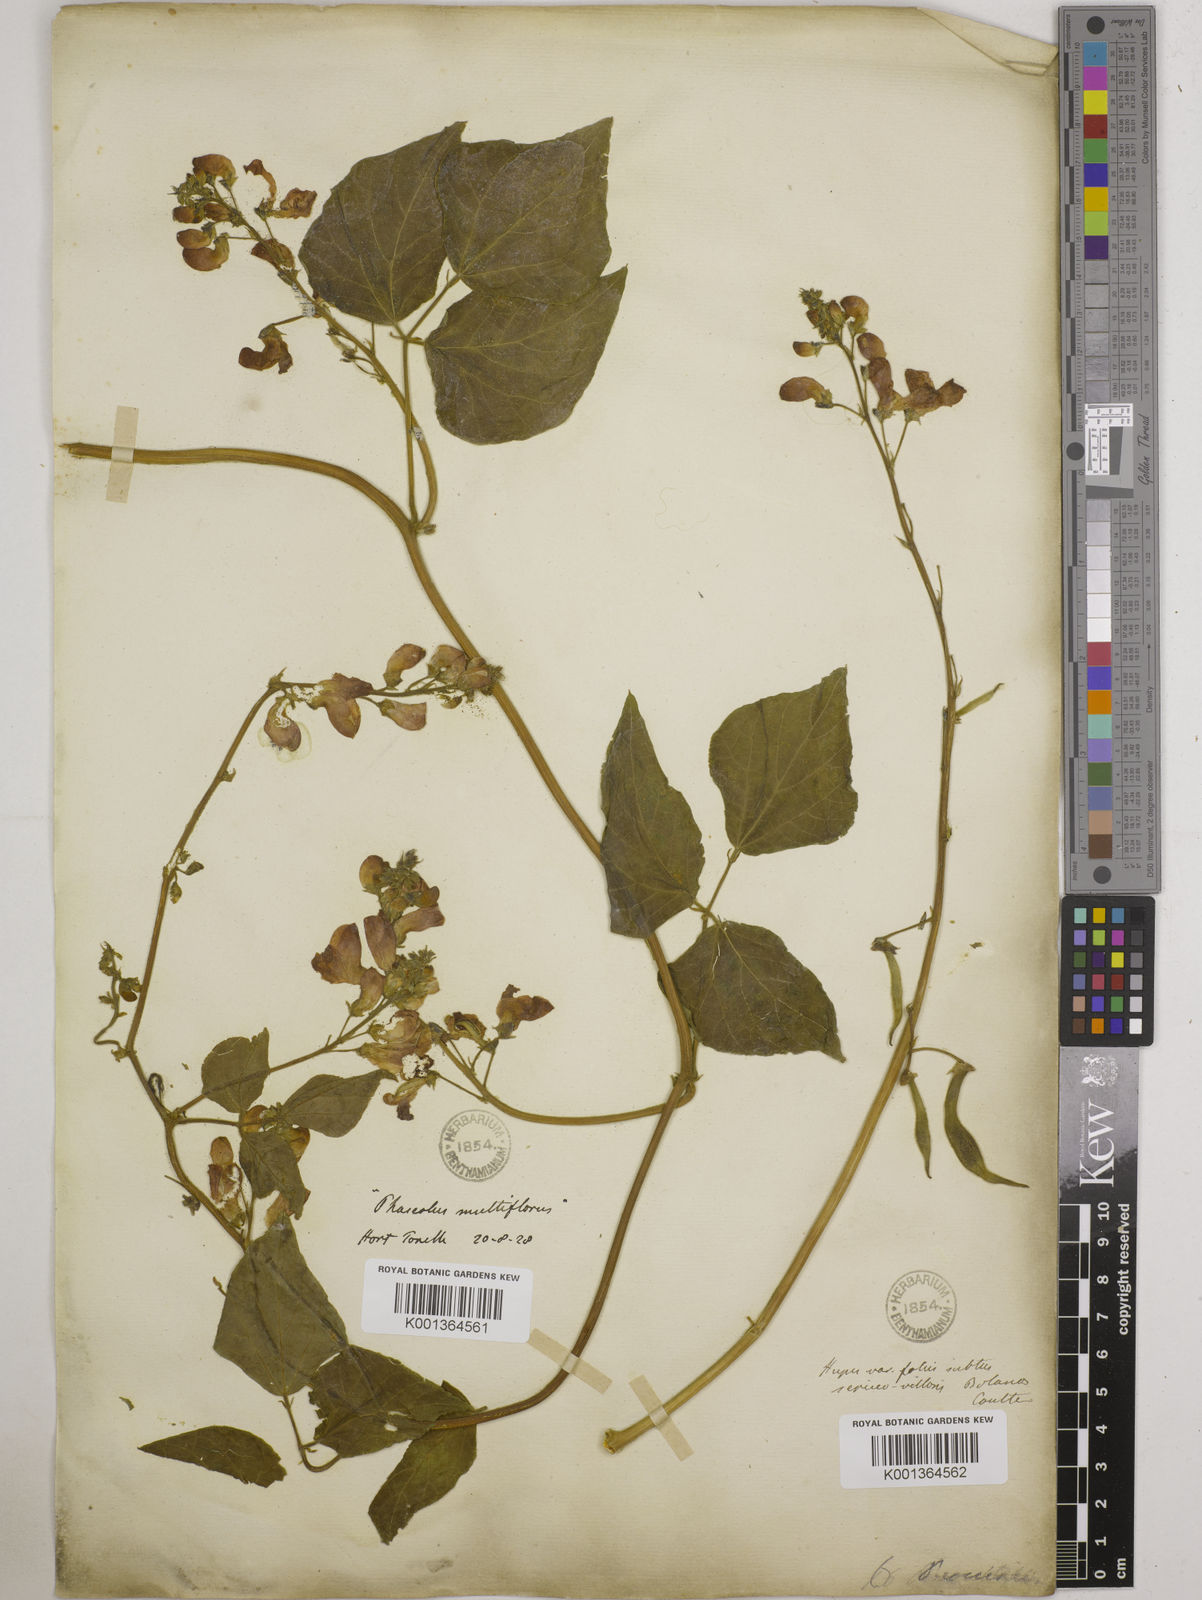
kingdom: Plantae
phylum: Tracheophyta
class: Magnoliopsida
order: Fabales
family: Fabaceae
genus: Phaseolus
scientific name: Phaseolus coccineus
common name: Runner bean
